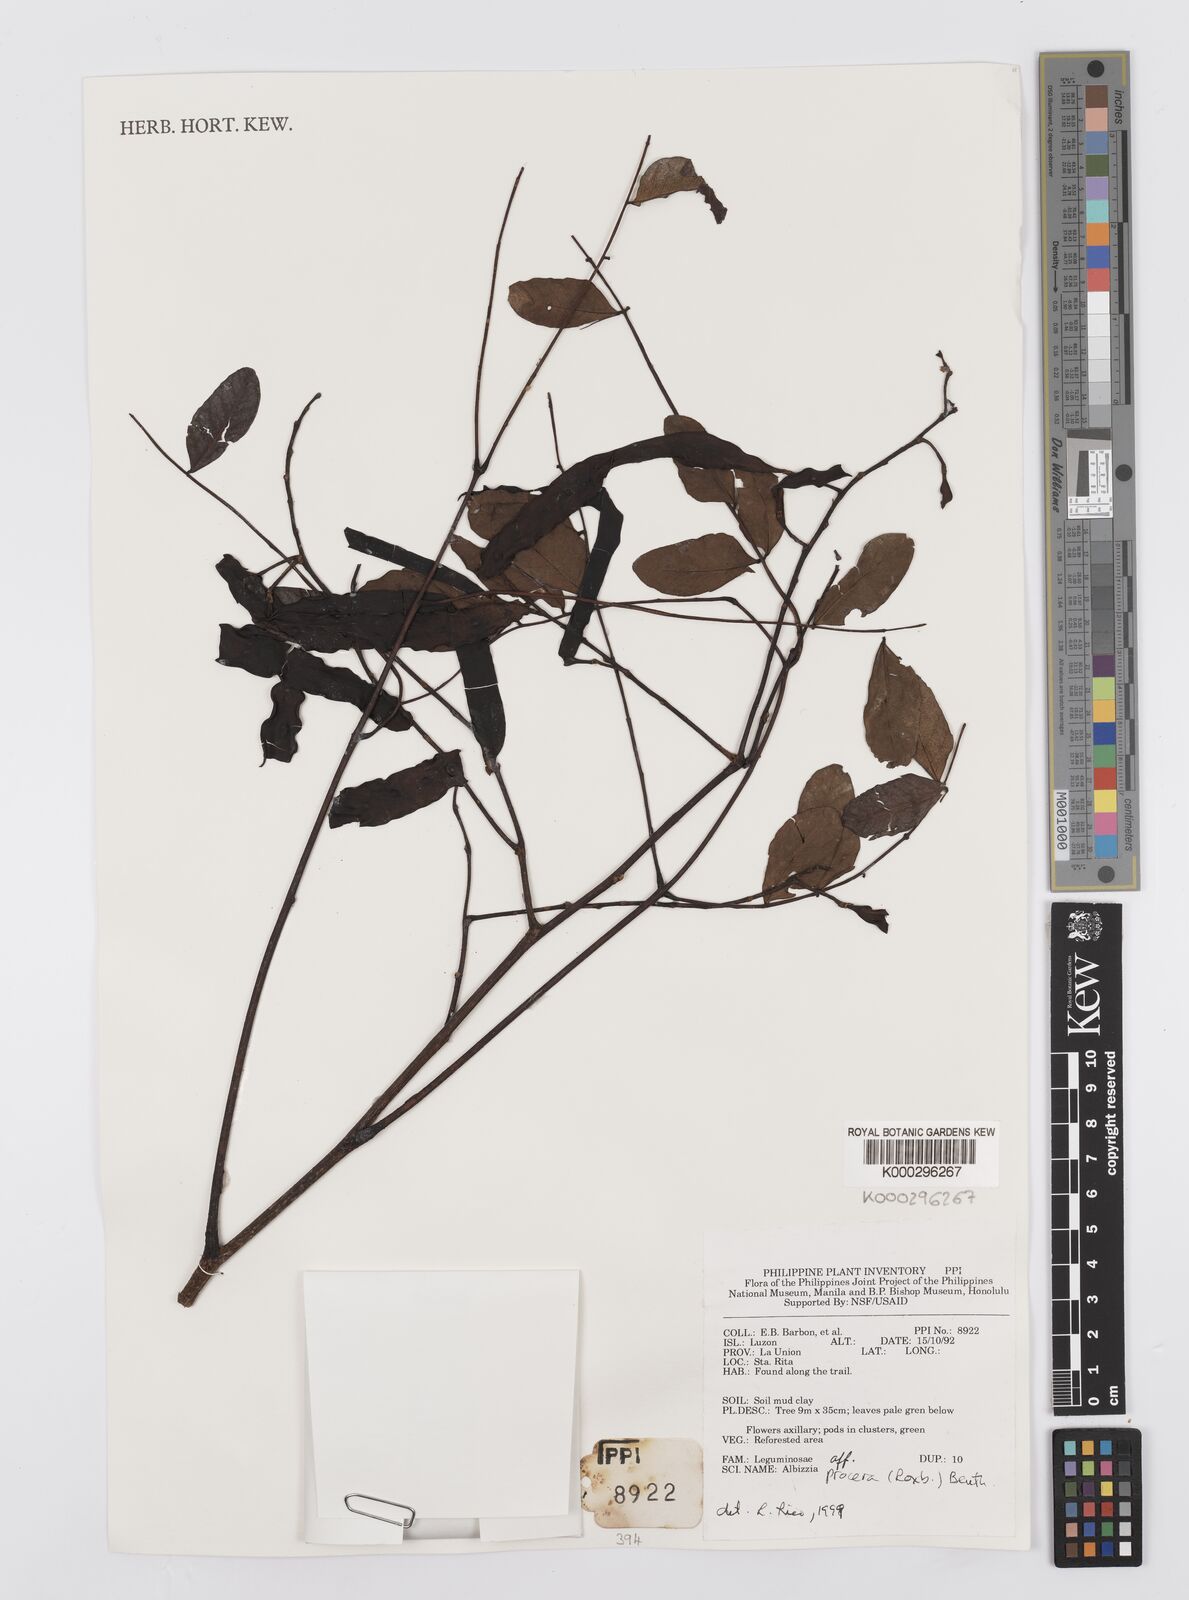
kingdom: Plantae
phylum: Tracheophyta
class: Magnoliopsida
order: Fabales
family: Fabaceae
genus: Albizia
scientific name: Albizia procera
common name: Tall albizia
